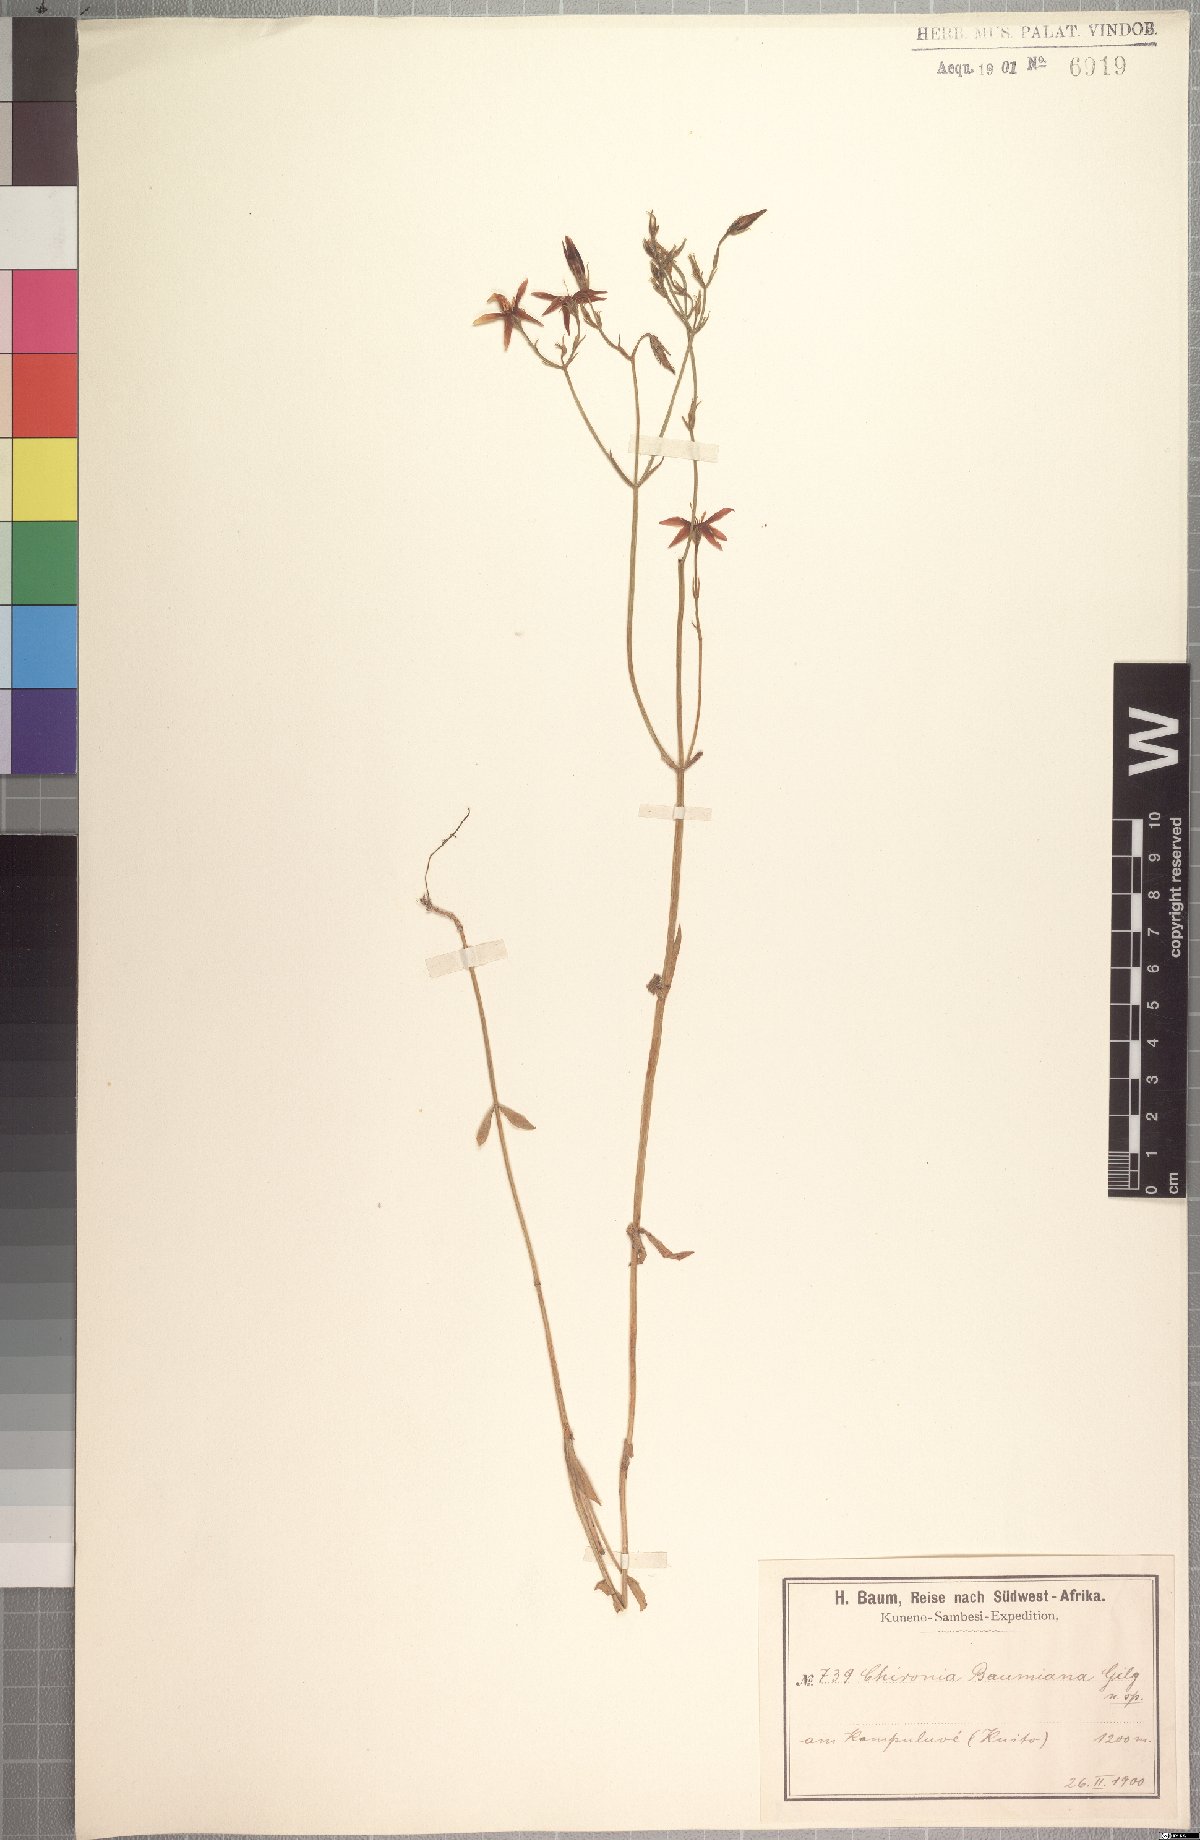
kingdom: Plantae
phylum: Tracheophyta
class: Magnoliopsida
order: Gentianales
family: Gentianaceae
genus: Chironia
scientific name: Chironia baumiana
